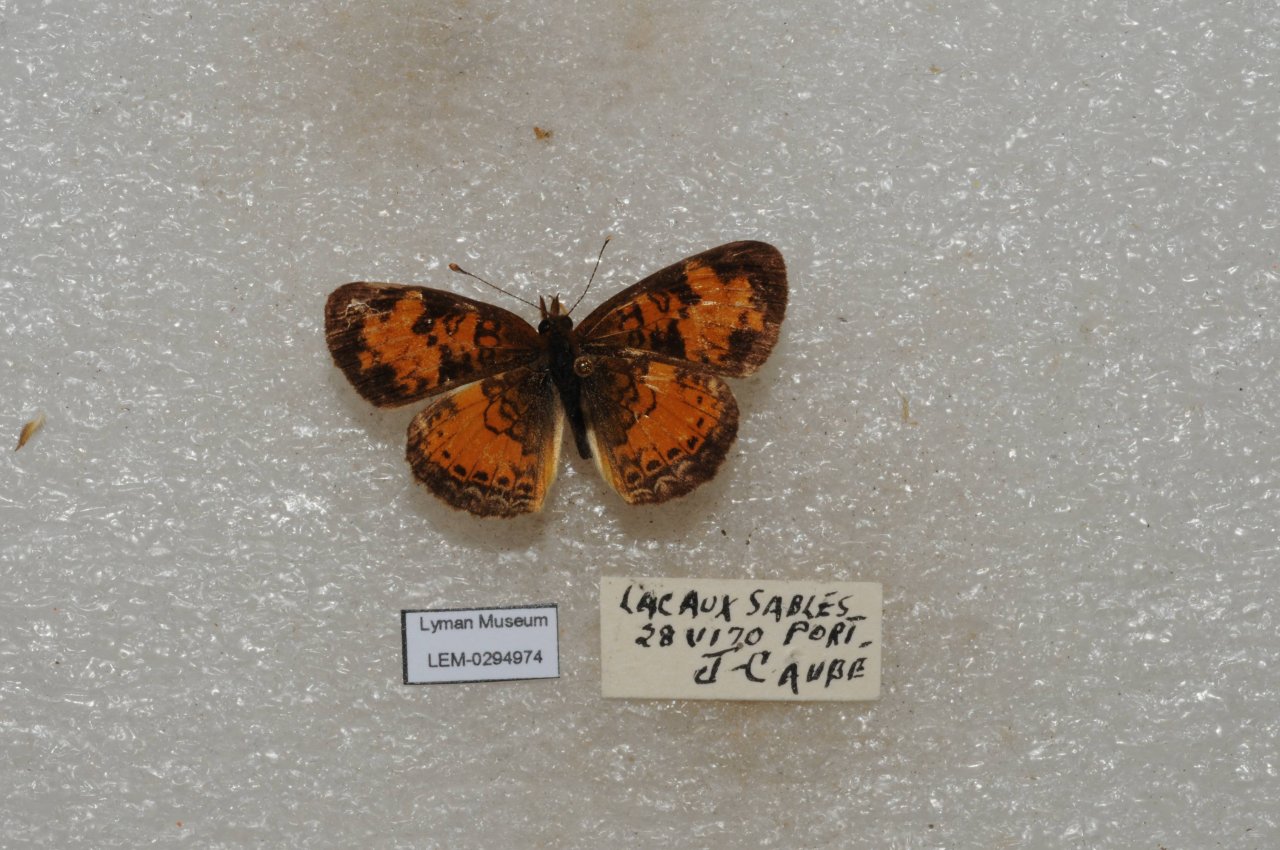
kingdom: Animalia
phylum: Arthropoda
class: Insecta
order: Lepidoptera
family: Nymphalidae
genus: Phyciodes
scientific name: Phyciodes tharos
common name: Northern Crescent
